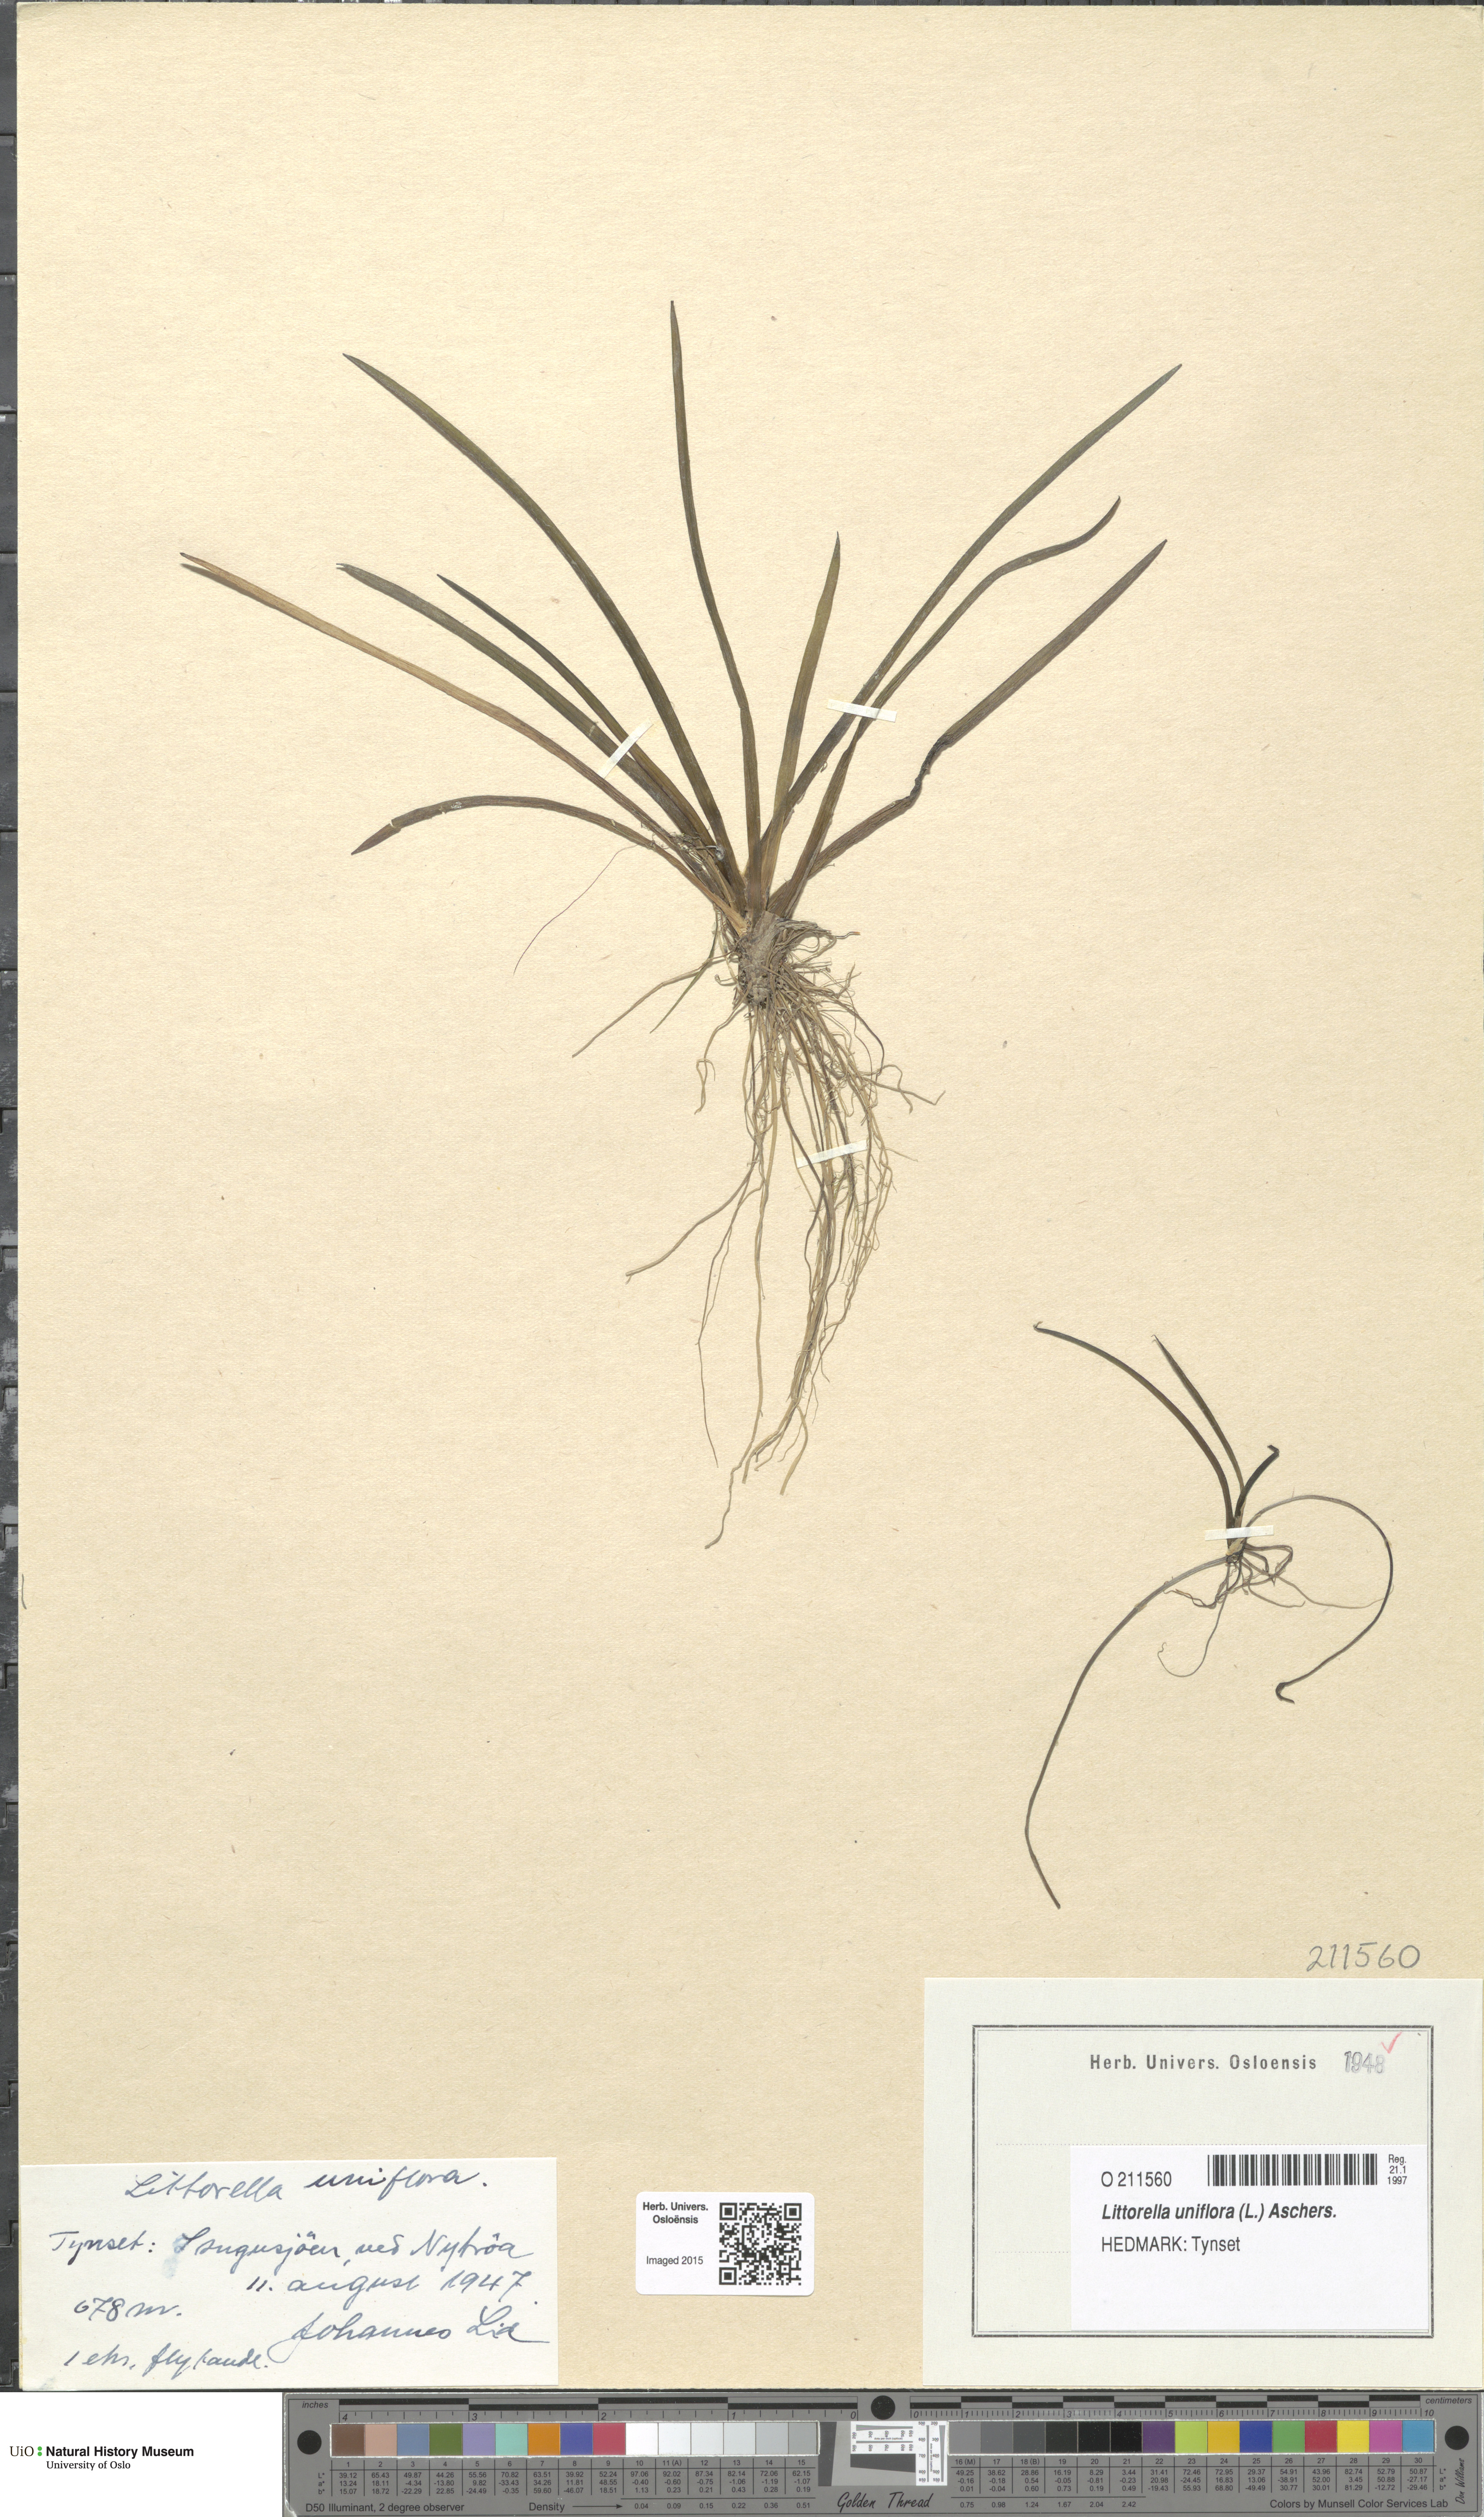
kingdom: Plantae
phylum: Tracheophyta
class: Magnoliopsida
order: Lamiales
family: Plantaginaceae
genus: Littorella
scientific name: Littorella uniflora
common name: Shoreweed
